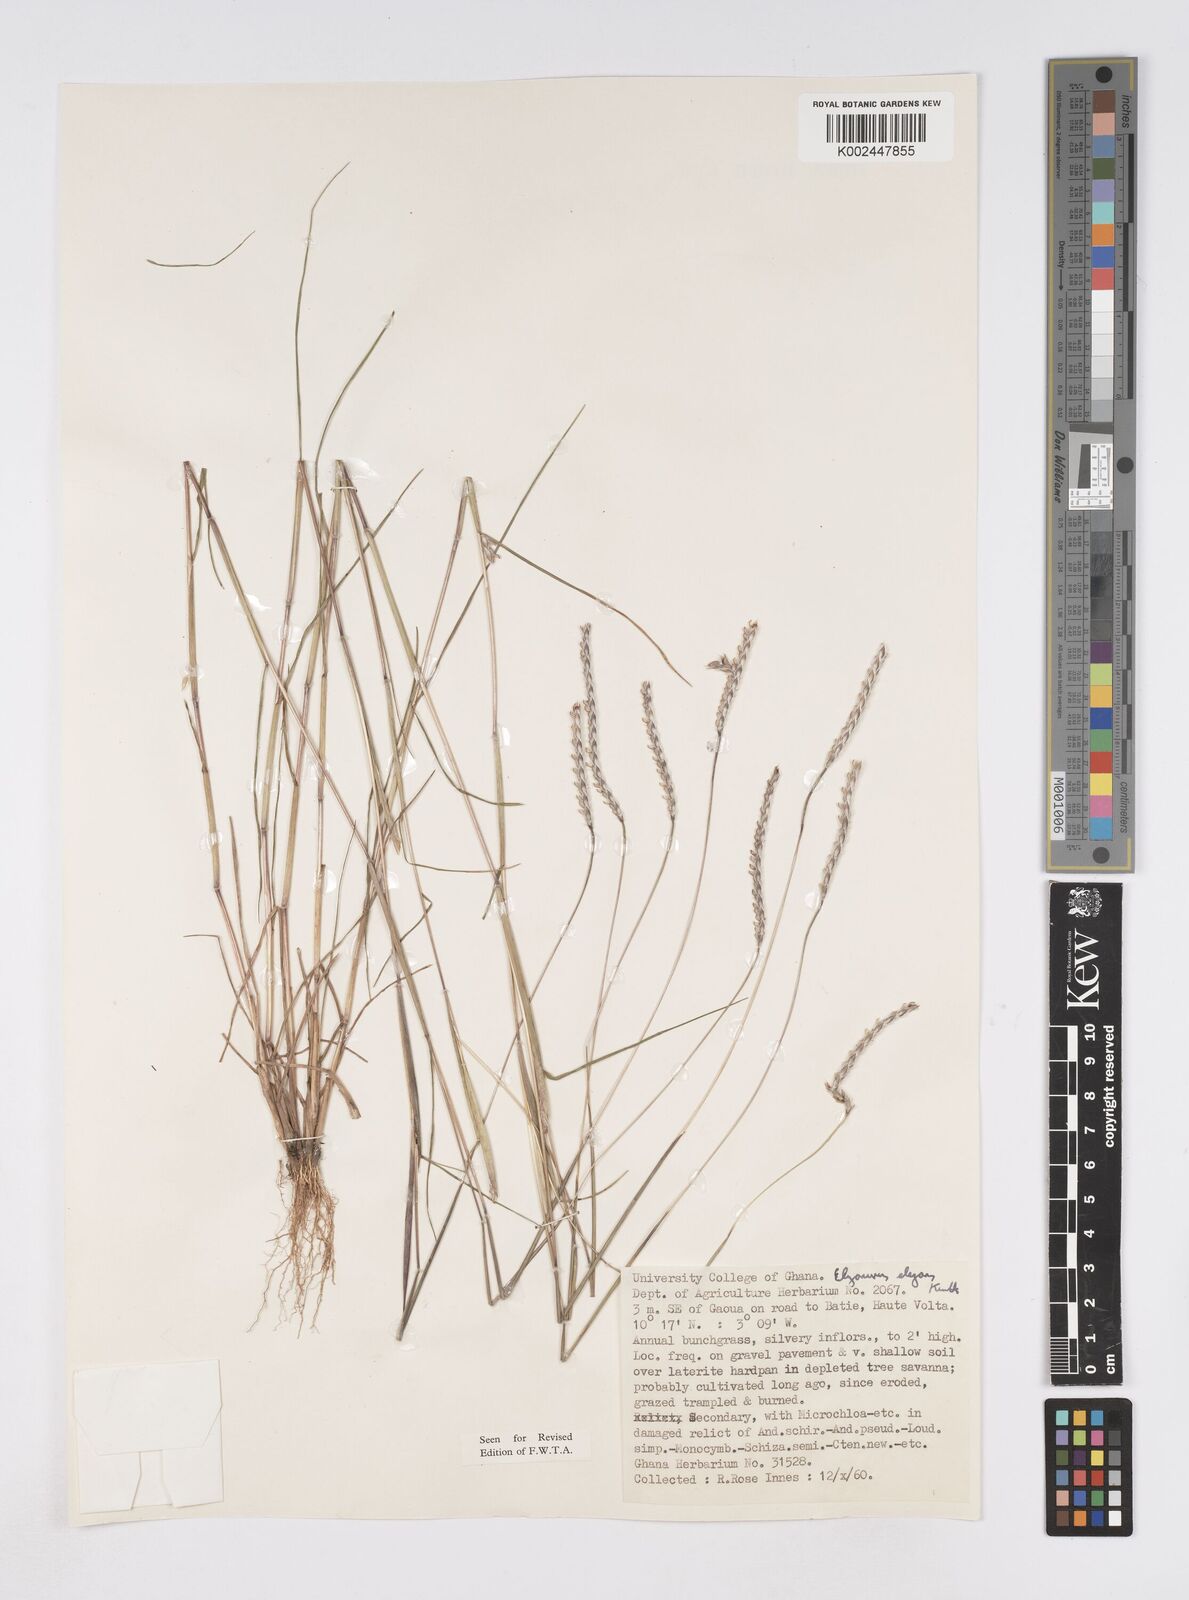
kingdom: Plantae
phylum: Tracheophyta
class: Liliopsida
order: Poales
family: Poaceae
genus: Elionurus
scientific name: Elionurus elegans
